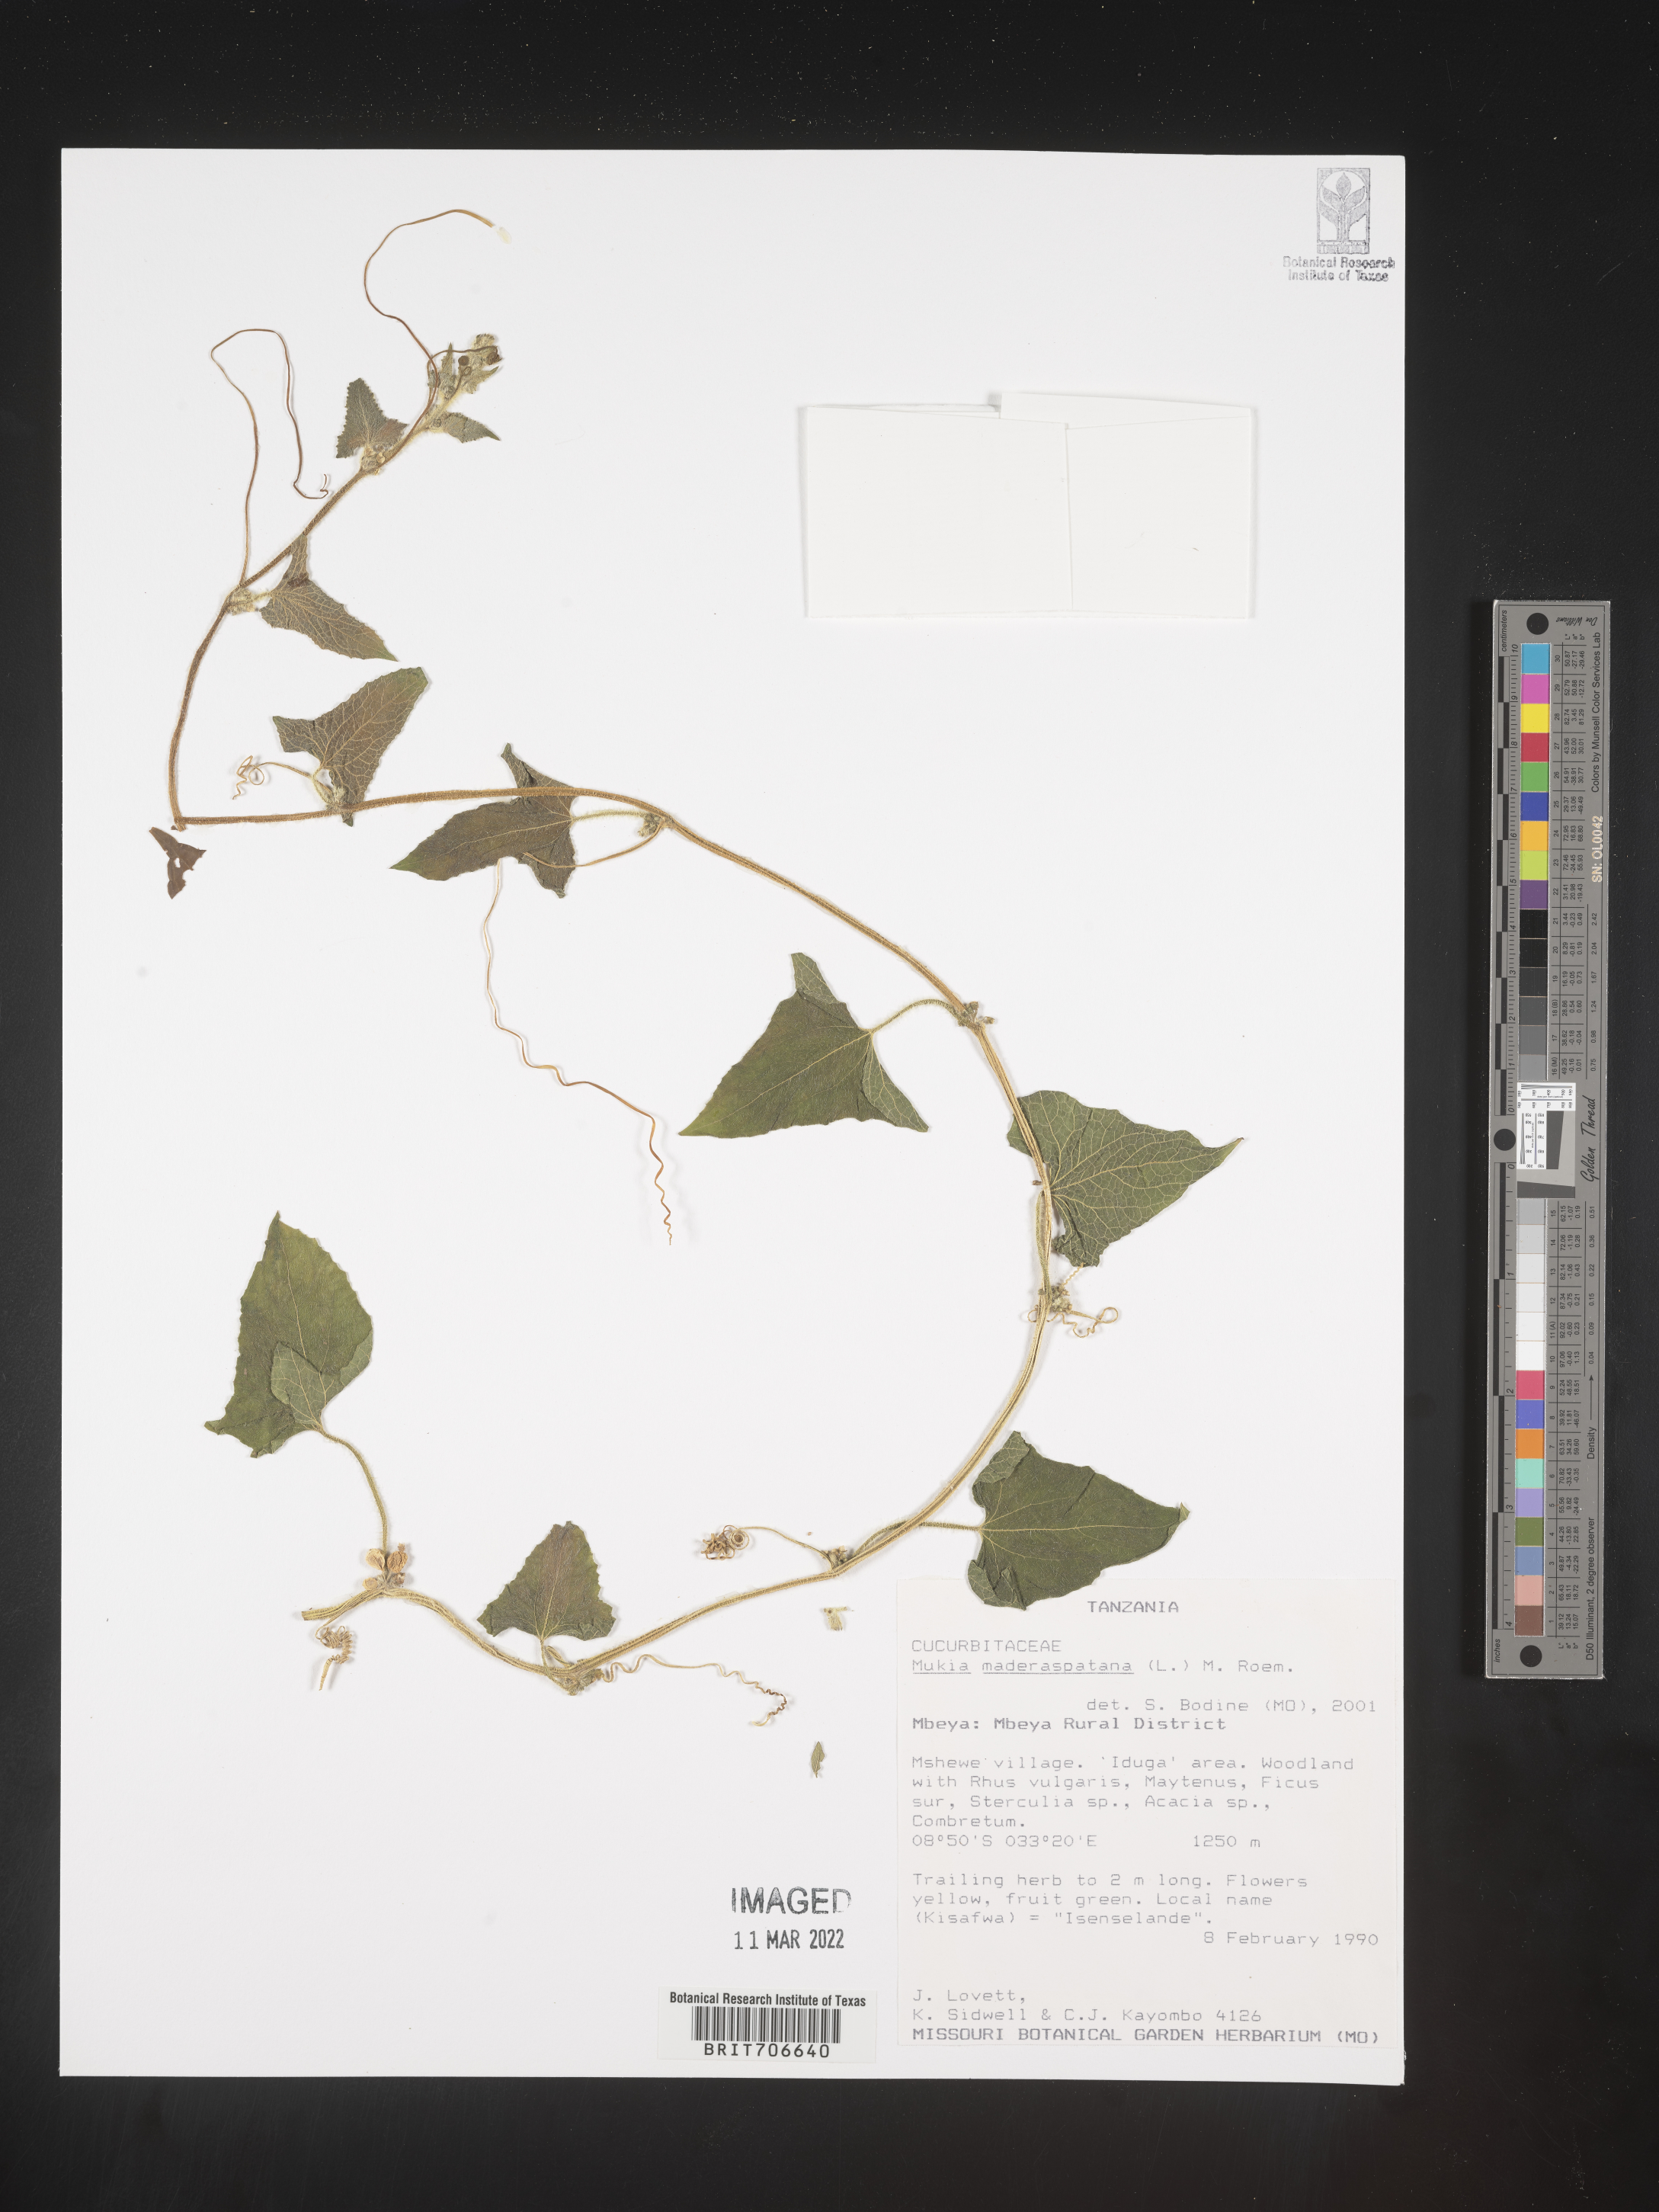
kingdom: Animalia
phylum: Arthropoda
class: Insecta
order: Lepidoptera
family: Crambidae
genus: Mukia
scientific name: Mukia
